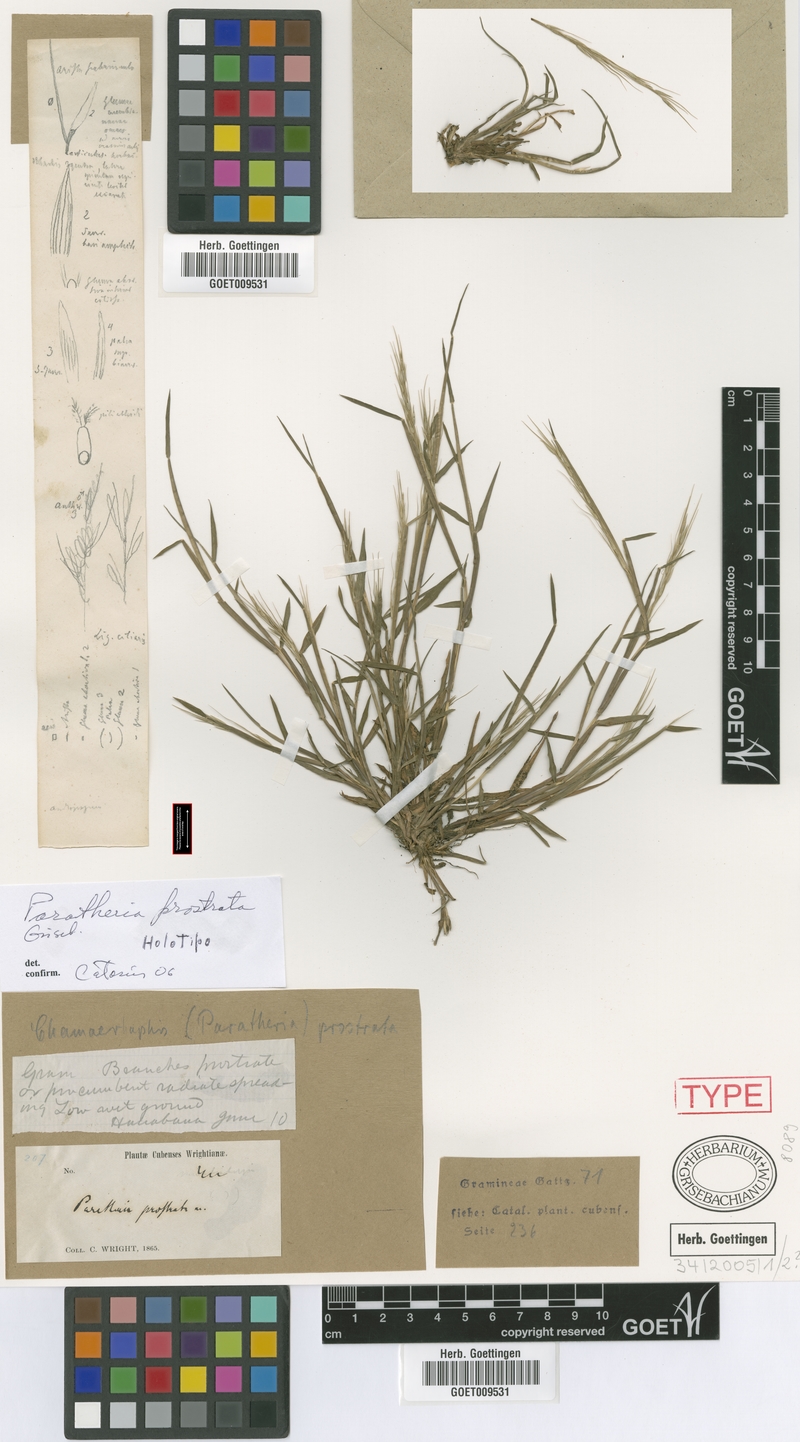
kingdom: Plantae
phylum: Tracheophyta
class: Liliopsida
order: Poales
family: Poaceae
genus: Paratheria
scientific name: Paratheria prostrata
